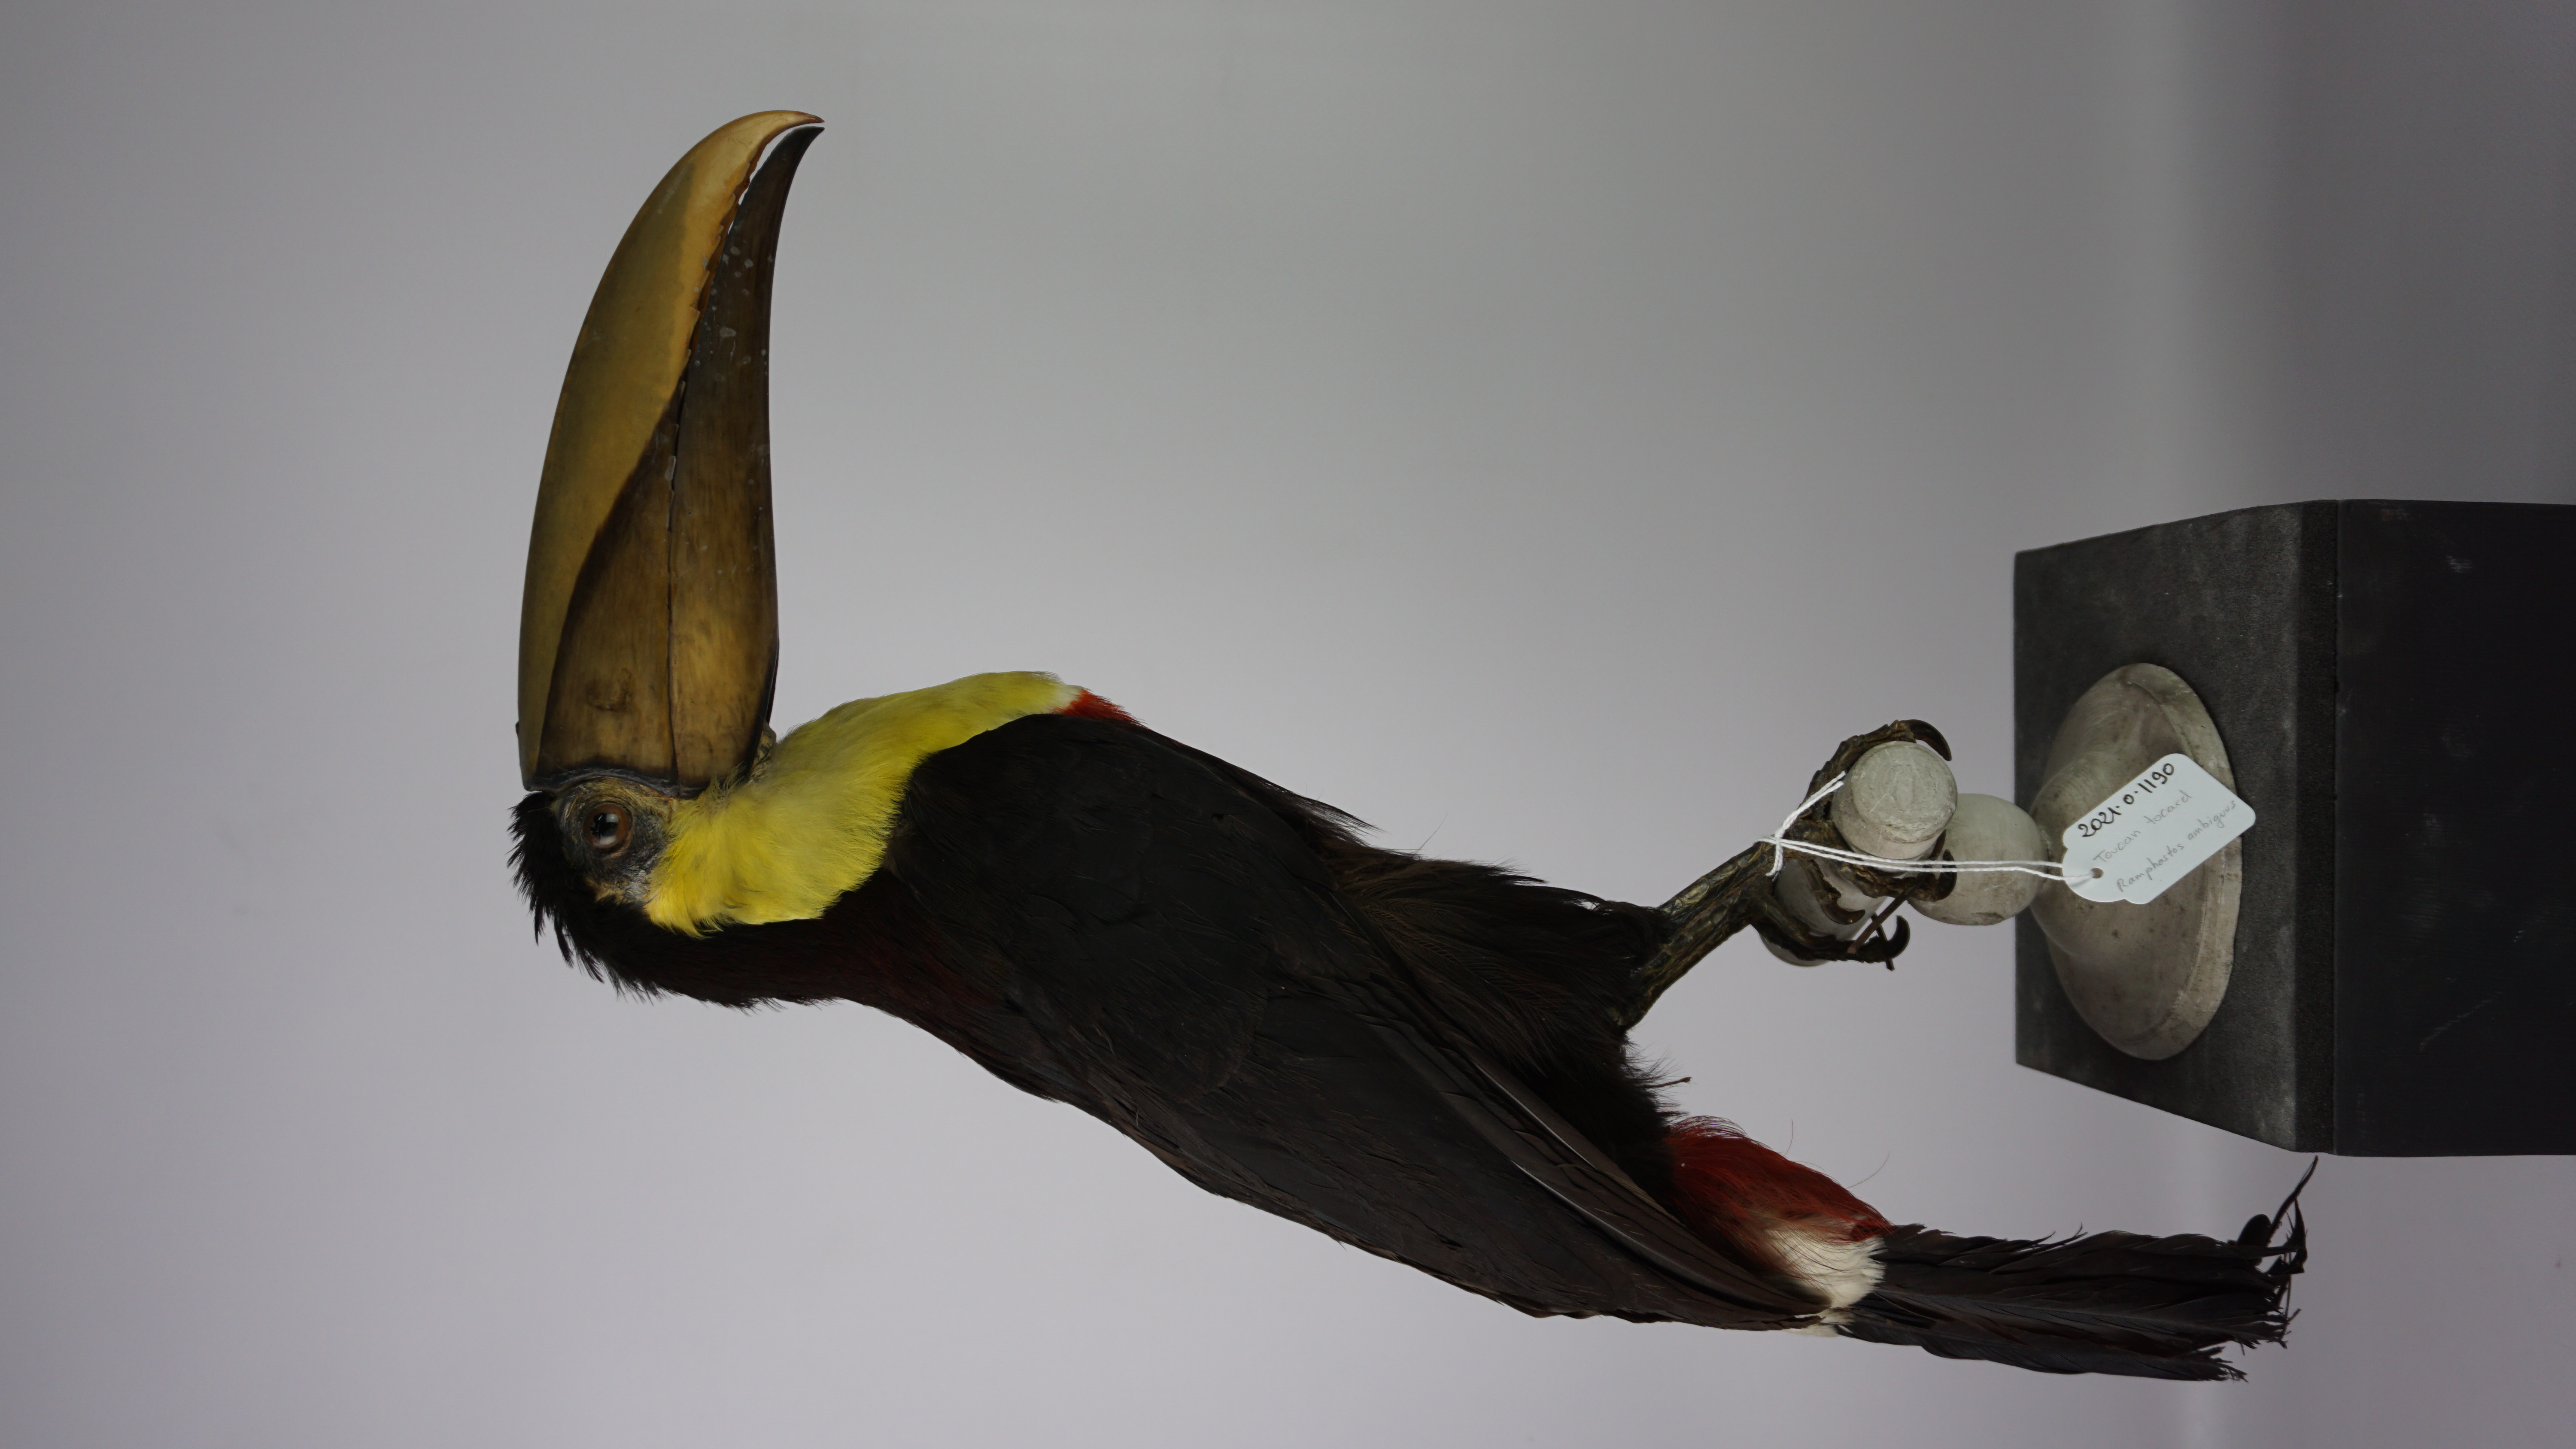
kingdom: Animalia
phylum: Chordata
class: Aves
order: Piciformes
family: Ramphastidae
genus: Ramphastos
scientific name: Ramphastos ambiguus
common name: Yellow-throated toucan
